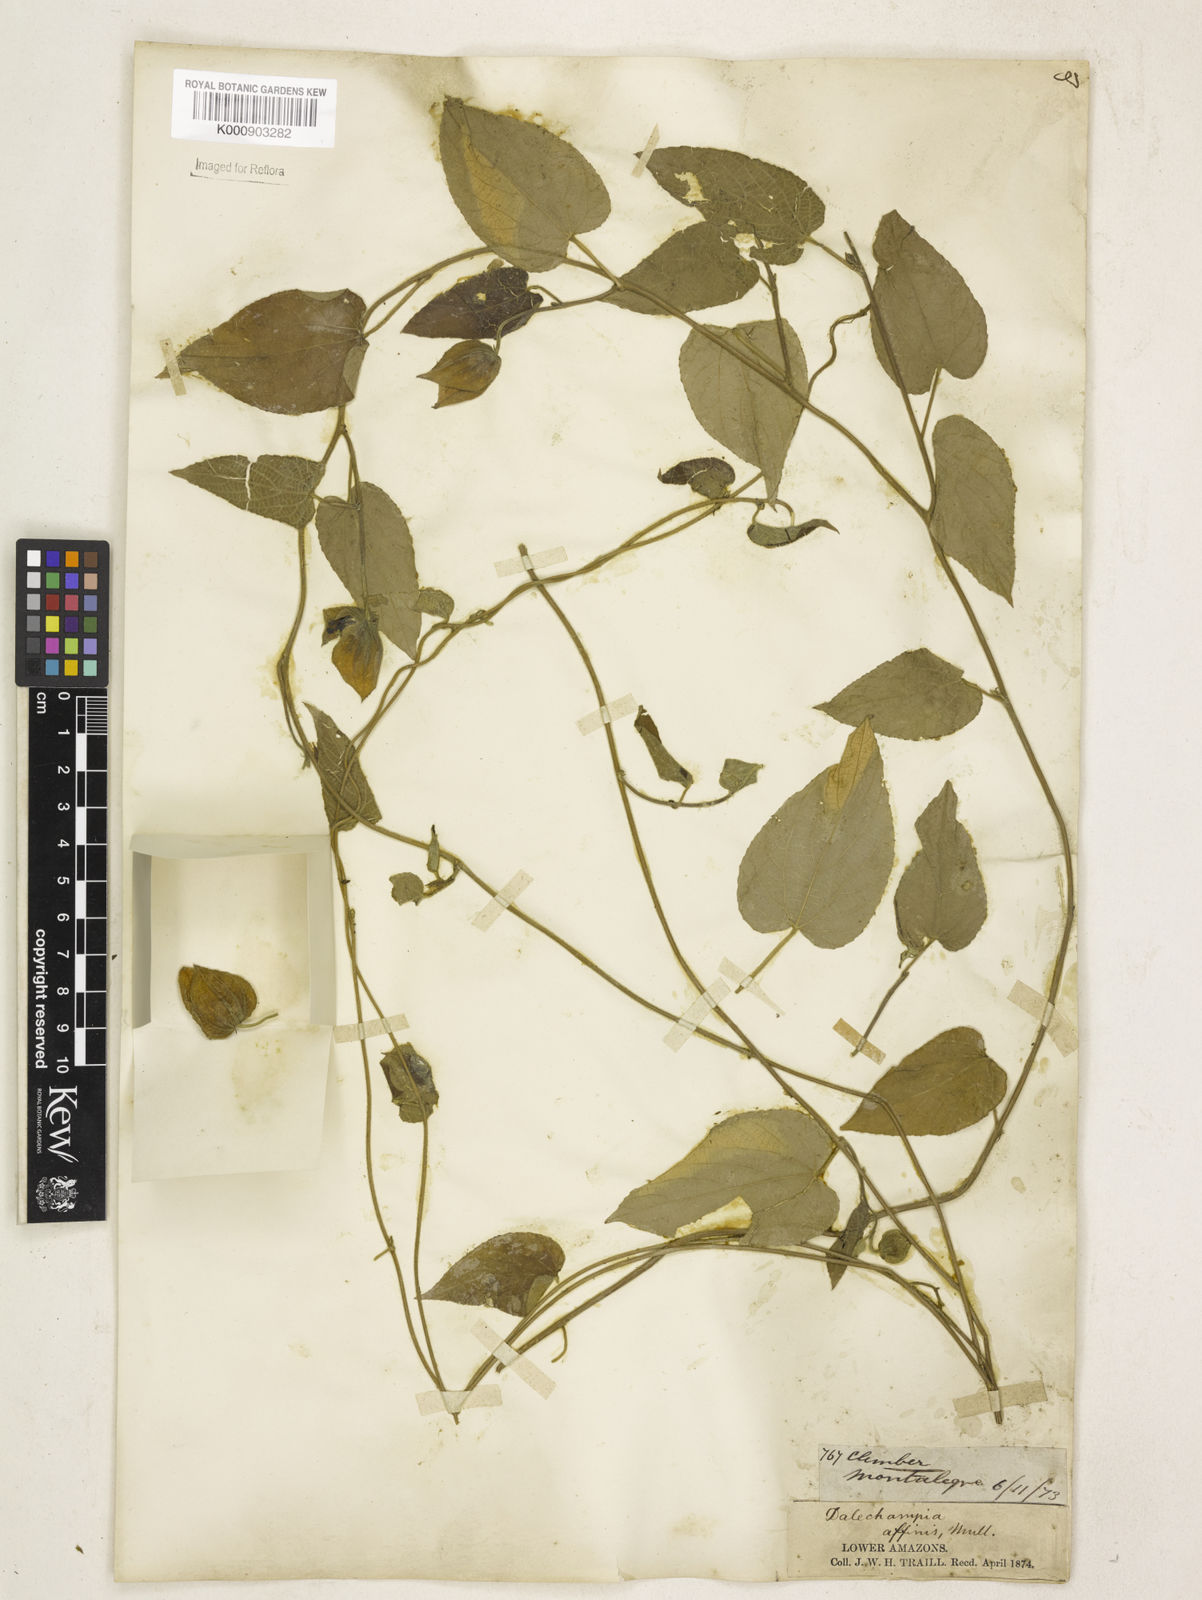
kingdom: Plantae
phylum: Tracheophyta
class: Magnoliopsida
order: Malpighiales
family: Euphorbiaceae
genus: Dalechampia
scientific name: Dalechampia
